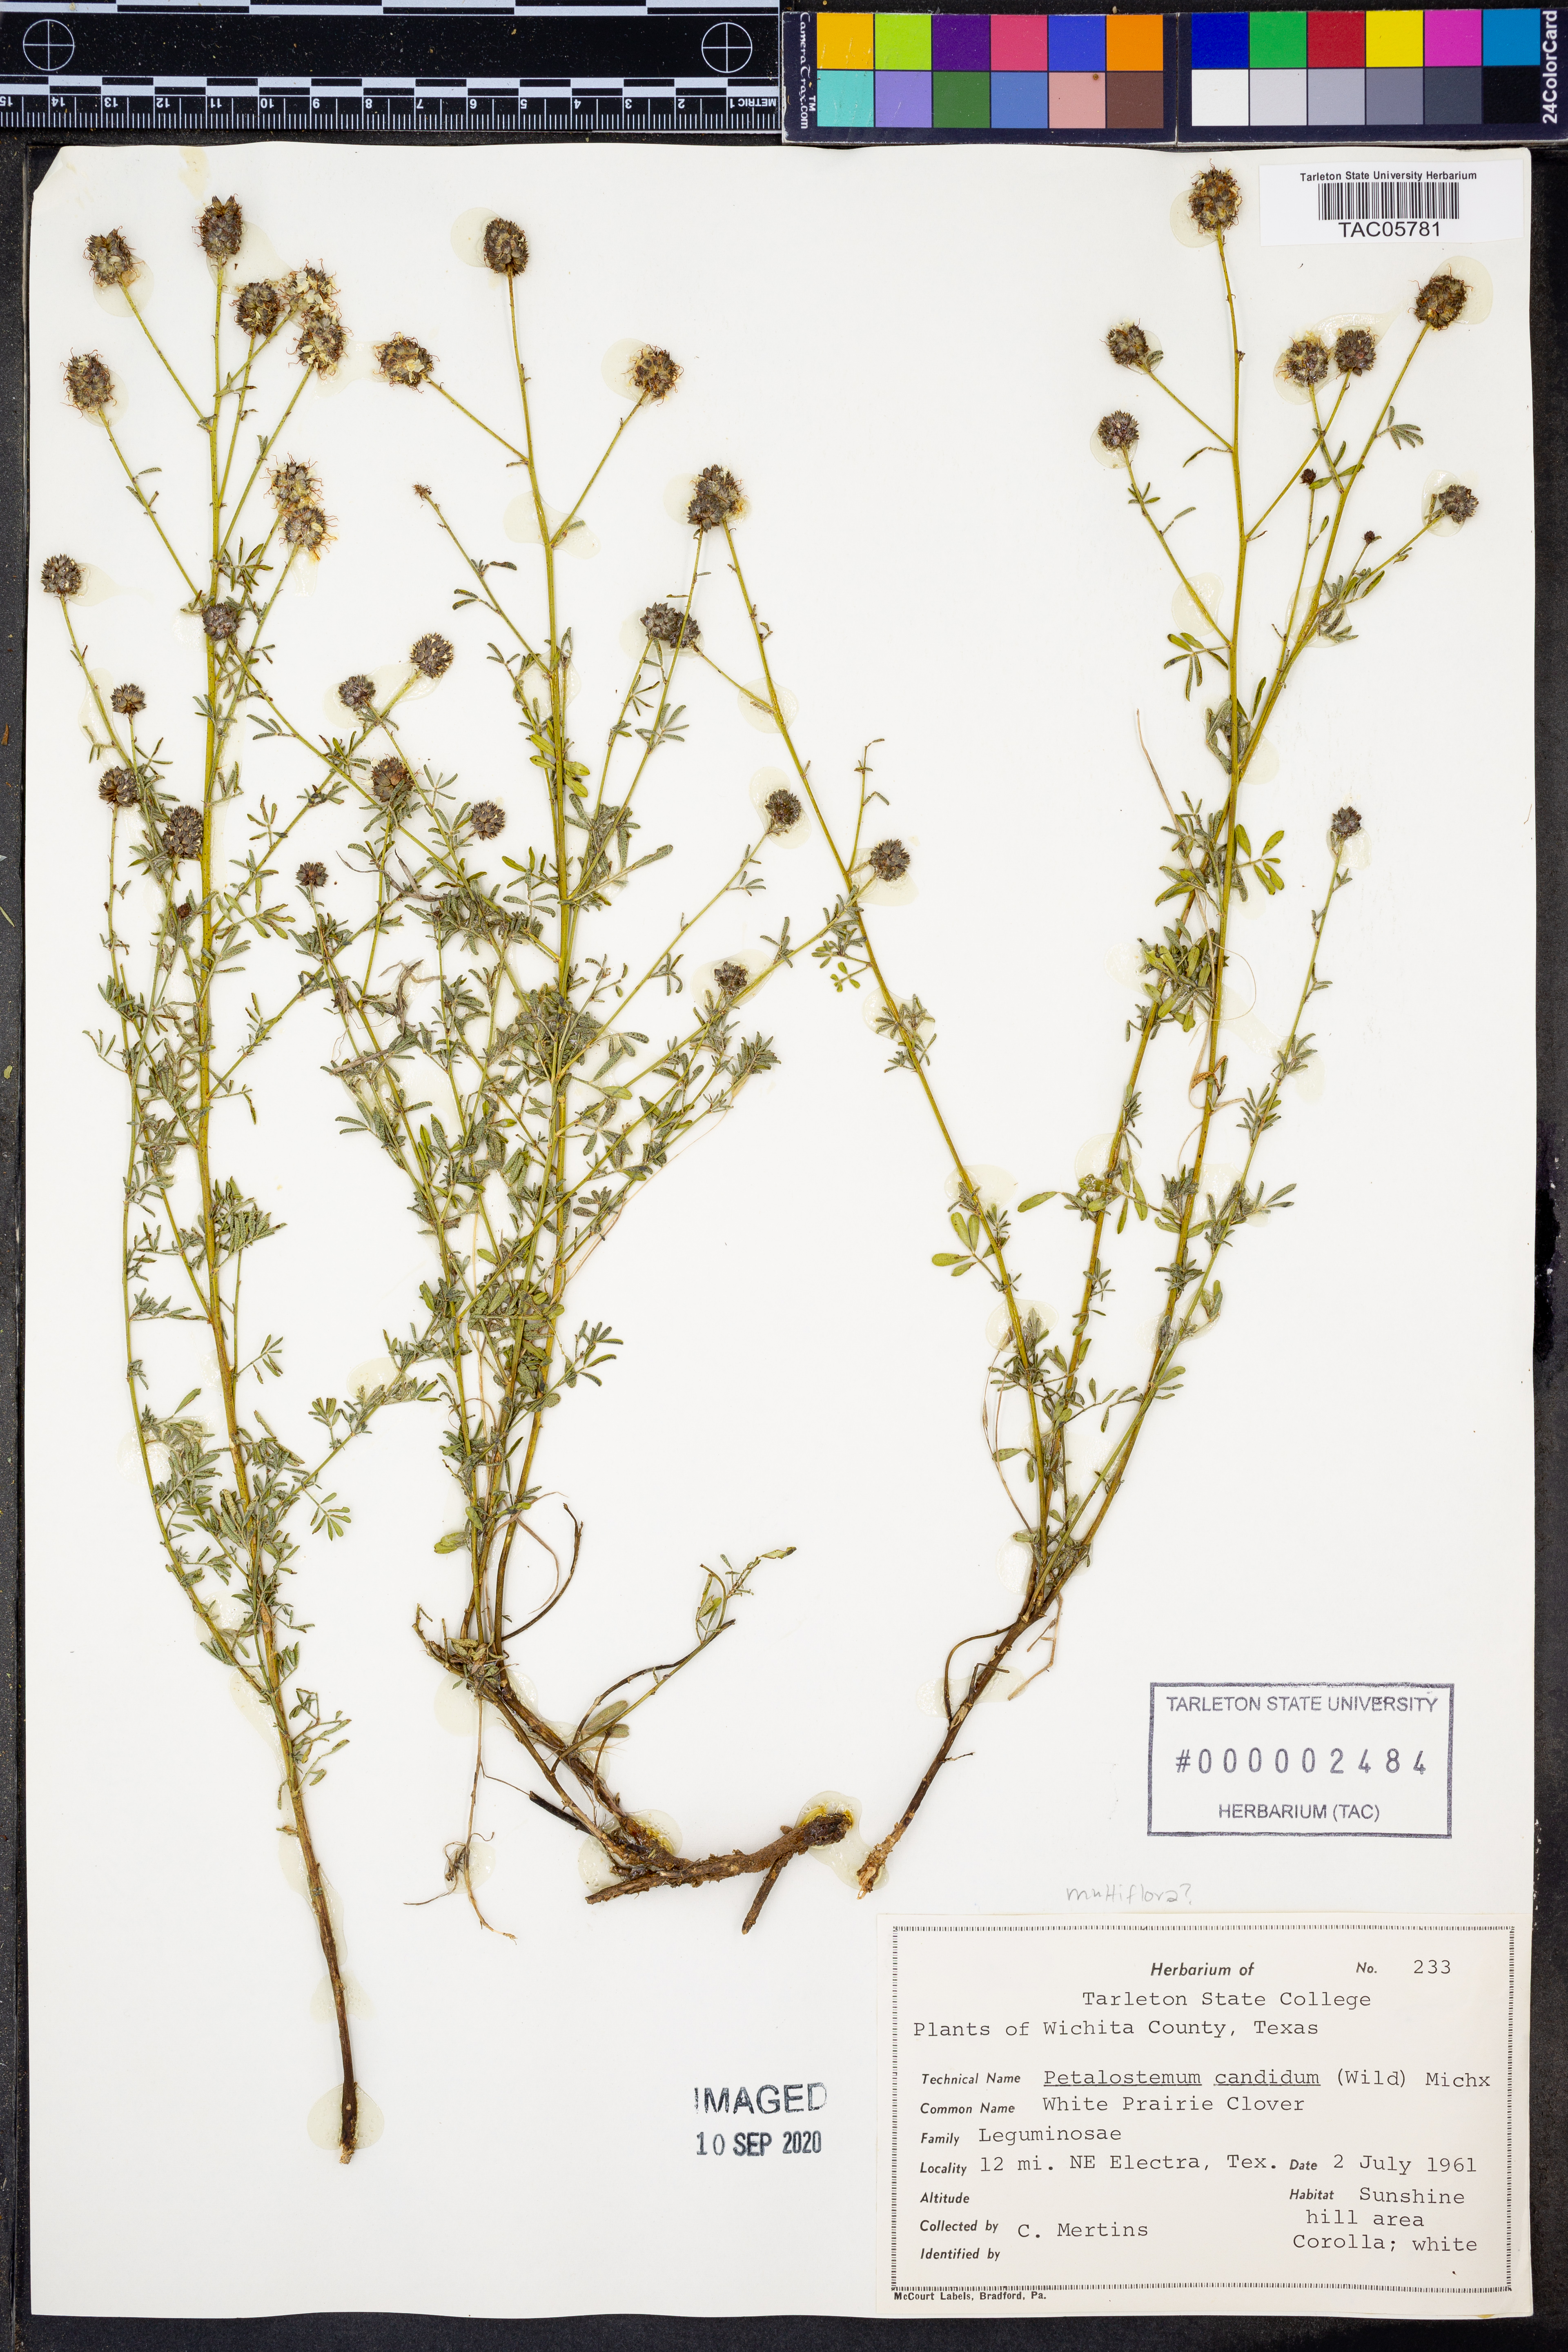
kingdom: Plantae
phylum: Tracheophyta
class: Magnoliopsida
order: Fabales
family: Fabaceae
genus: Dalea
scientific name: Dalea candida
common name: White prairie-clover
